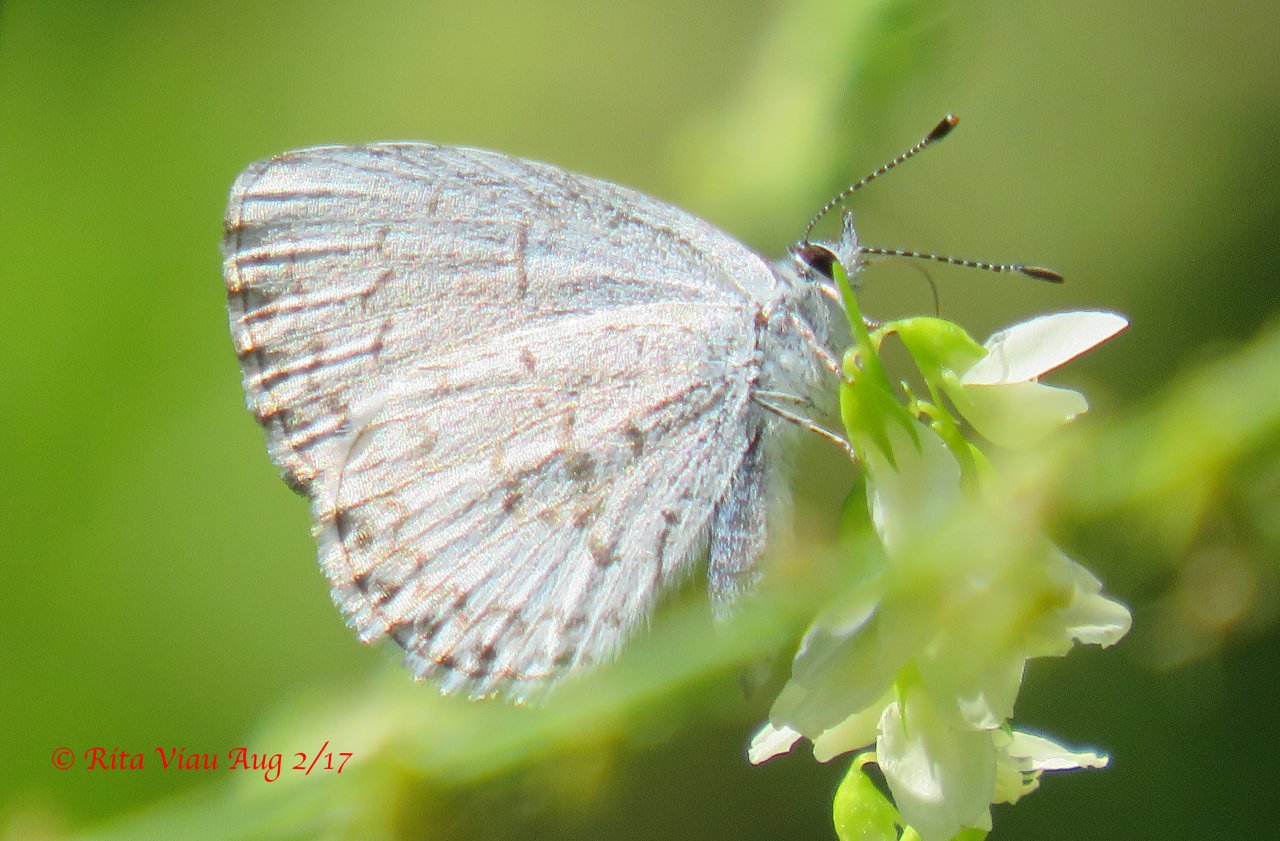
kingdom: Animalia
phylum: Arthropoda
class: Insecta
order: Lepidoptera
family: Lycaenidae
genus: Celastrina
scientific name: Celastrina
